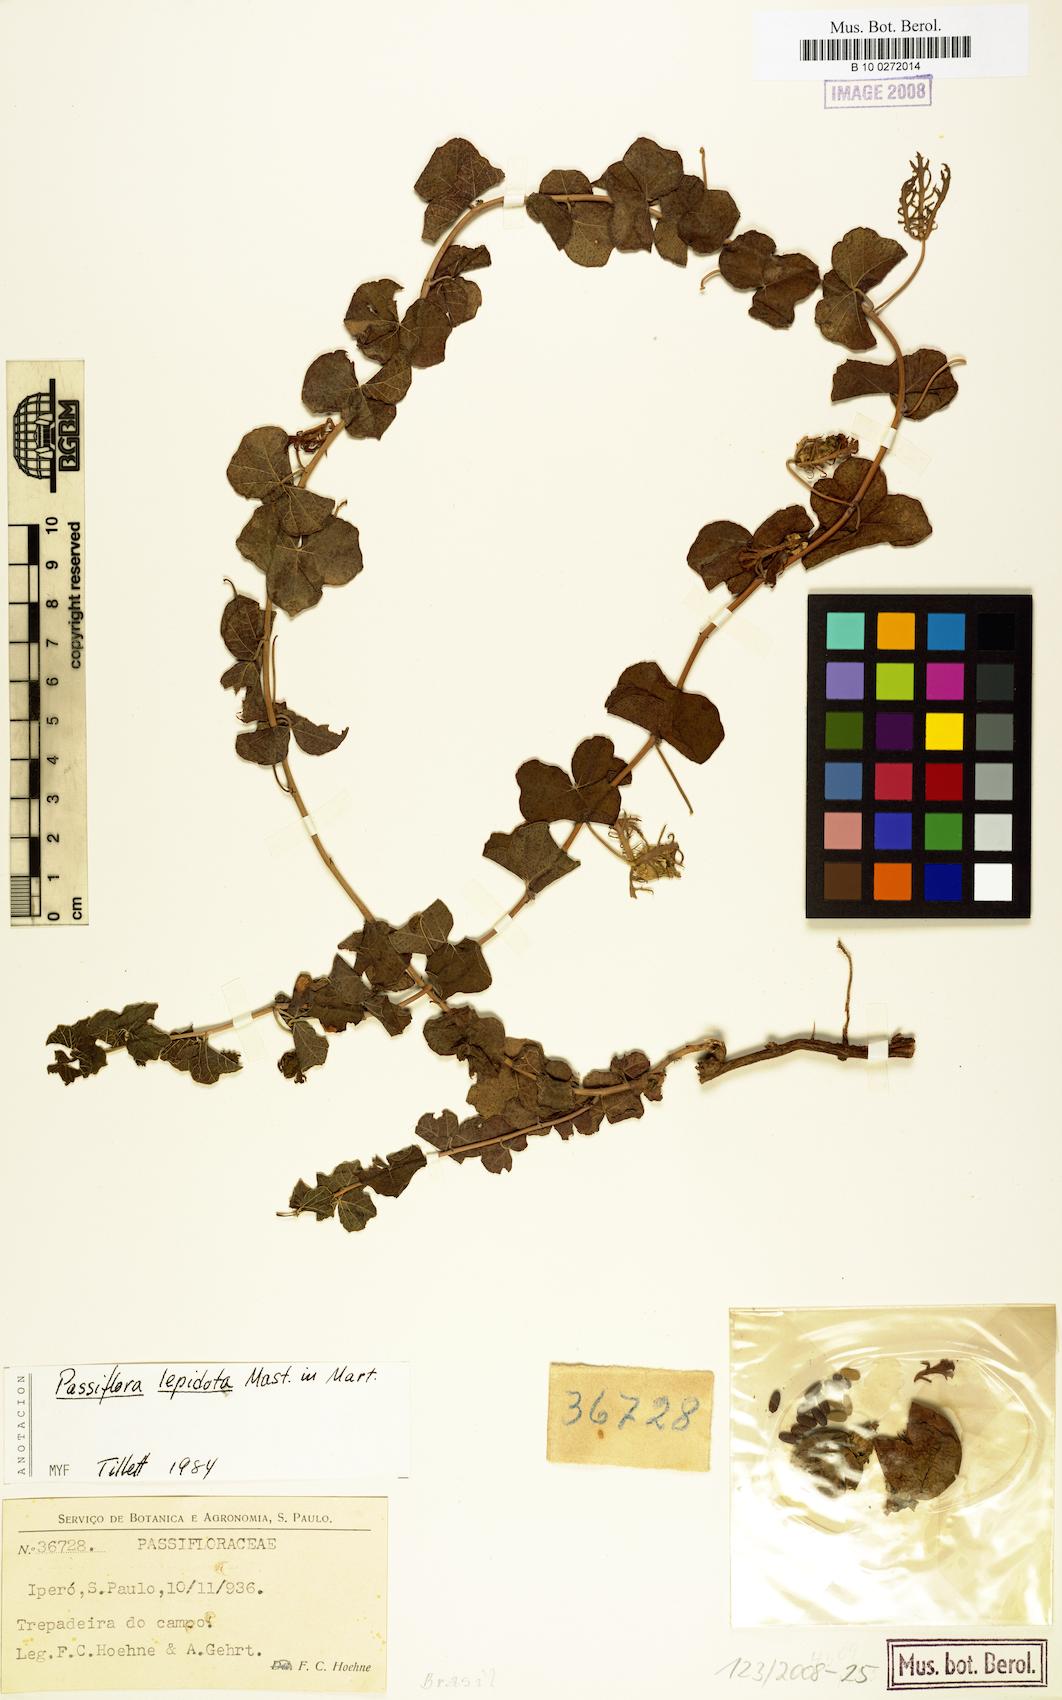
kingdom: Plantae
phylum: Tracheophyta
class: Magnoliopsida
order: Malpighiales
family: Passifloraceae
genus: Passiflora
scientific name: Passiflora lepidota
